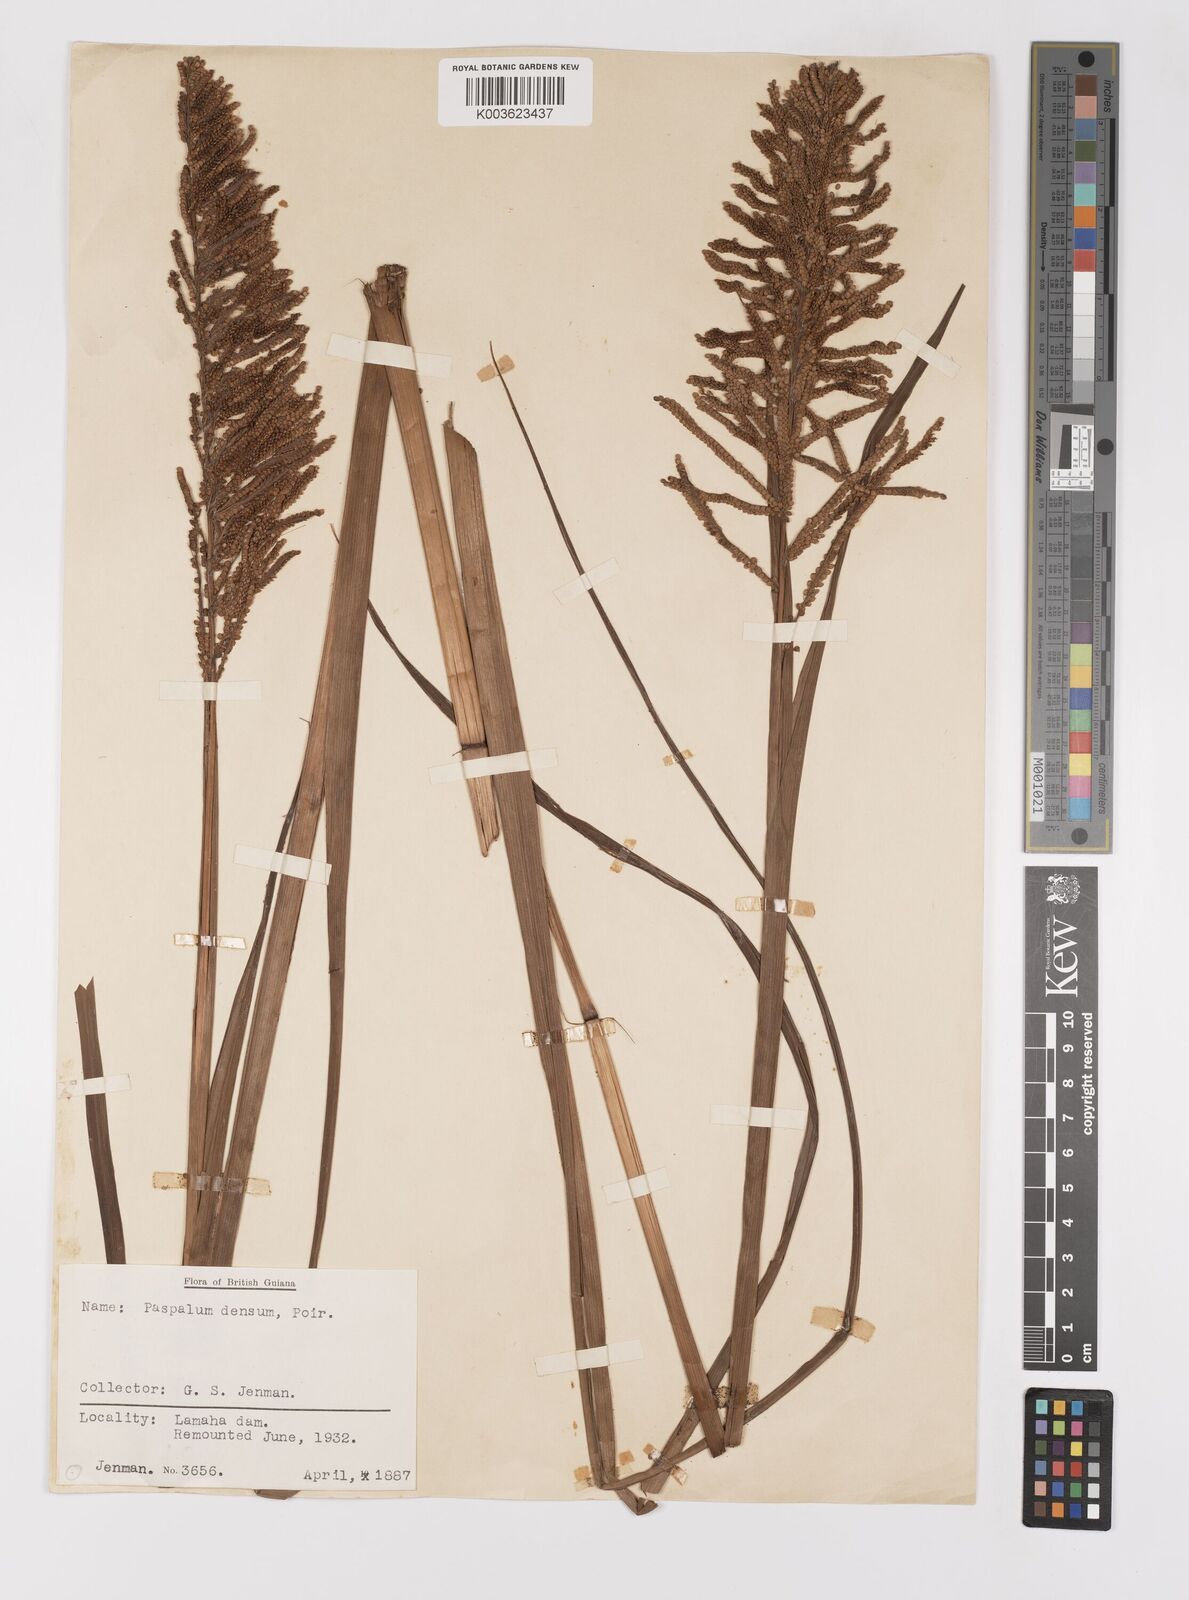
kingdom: Plantae
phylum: Tracheophyta
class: Liliopsida
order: Poales
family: Poaceae
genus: Paspalum
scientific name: Paspalum densum
